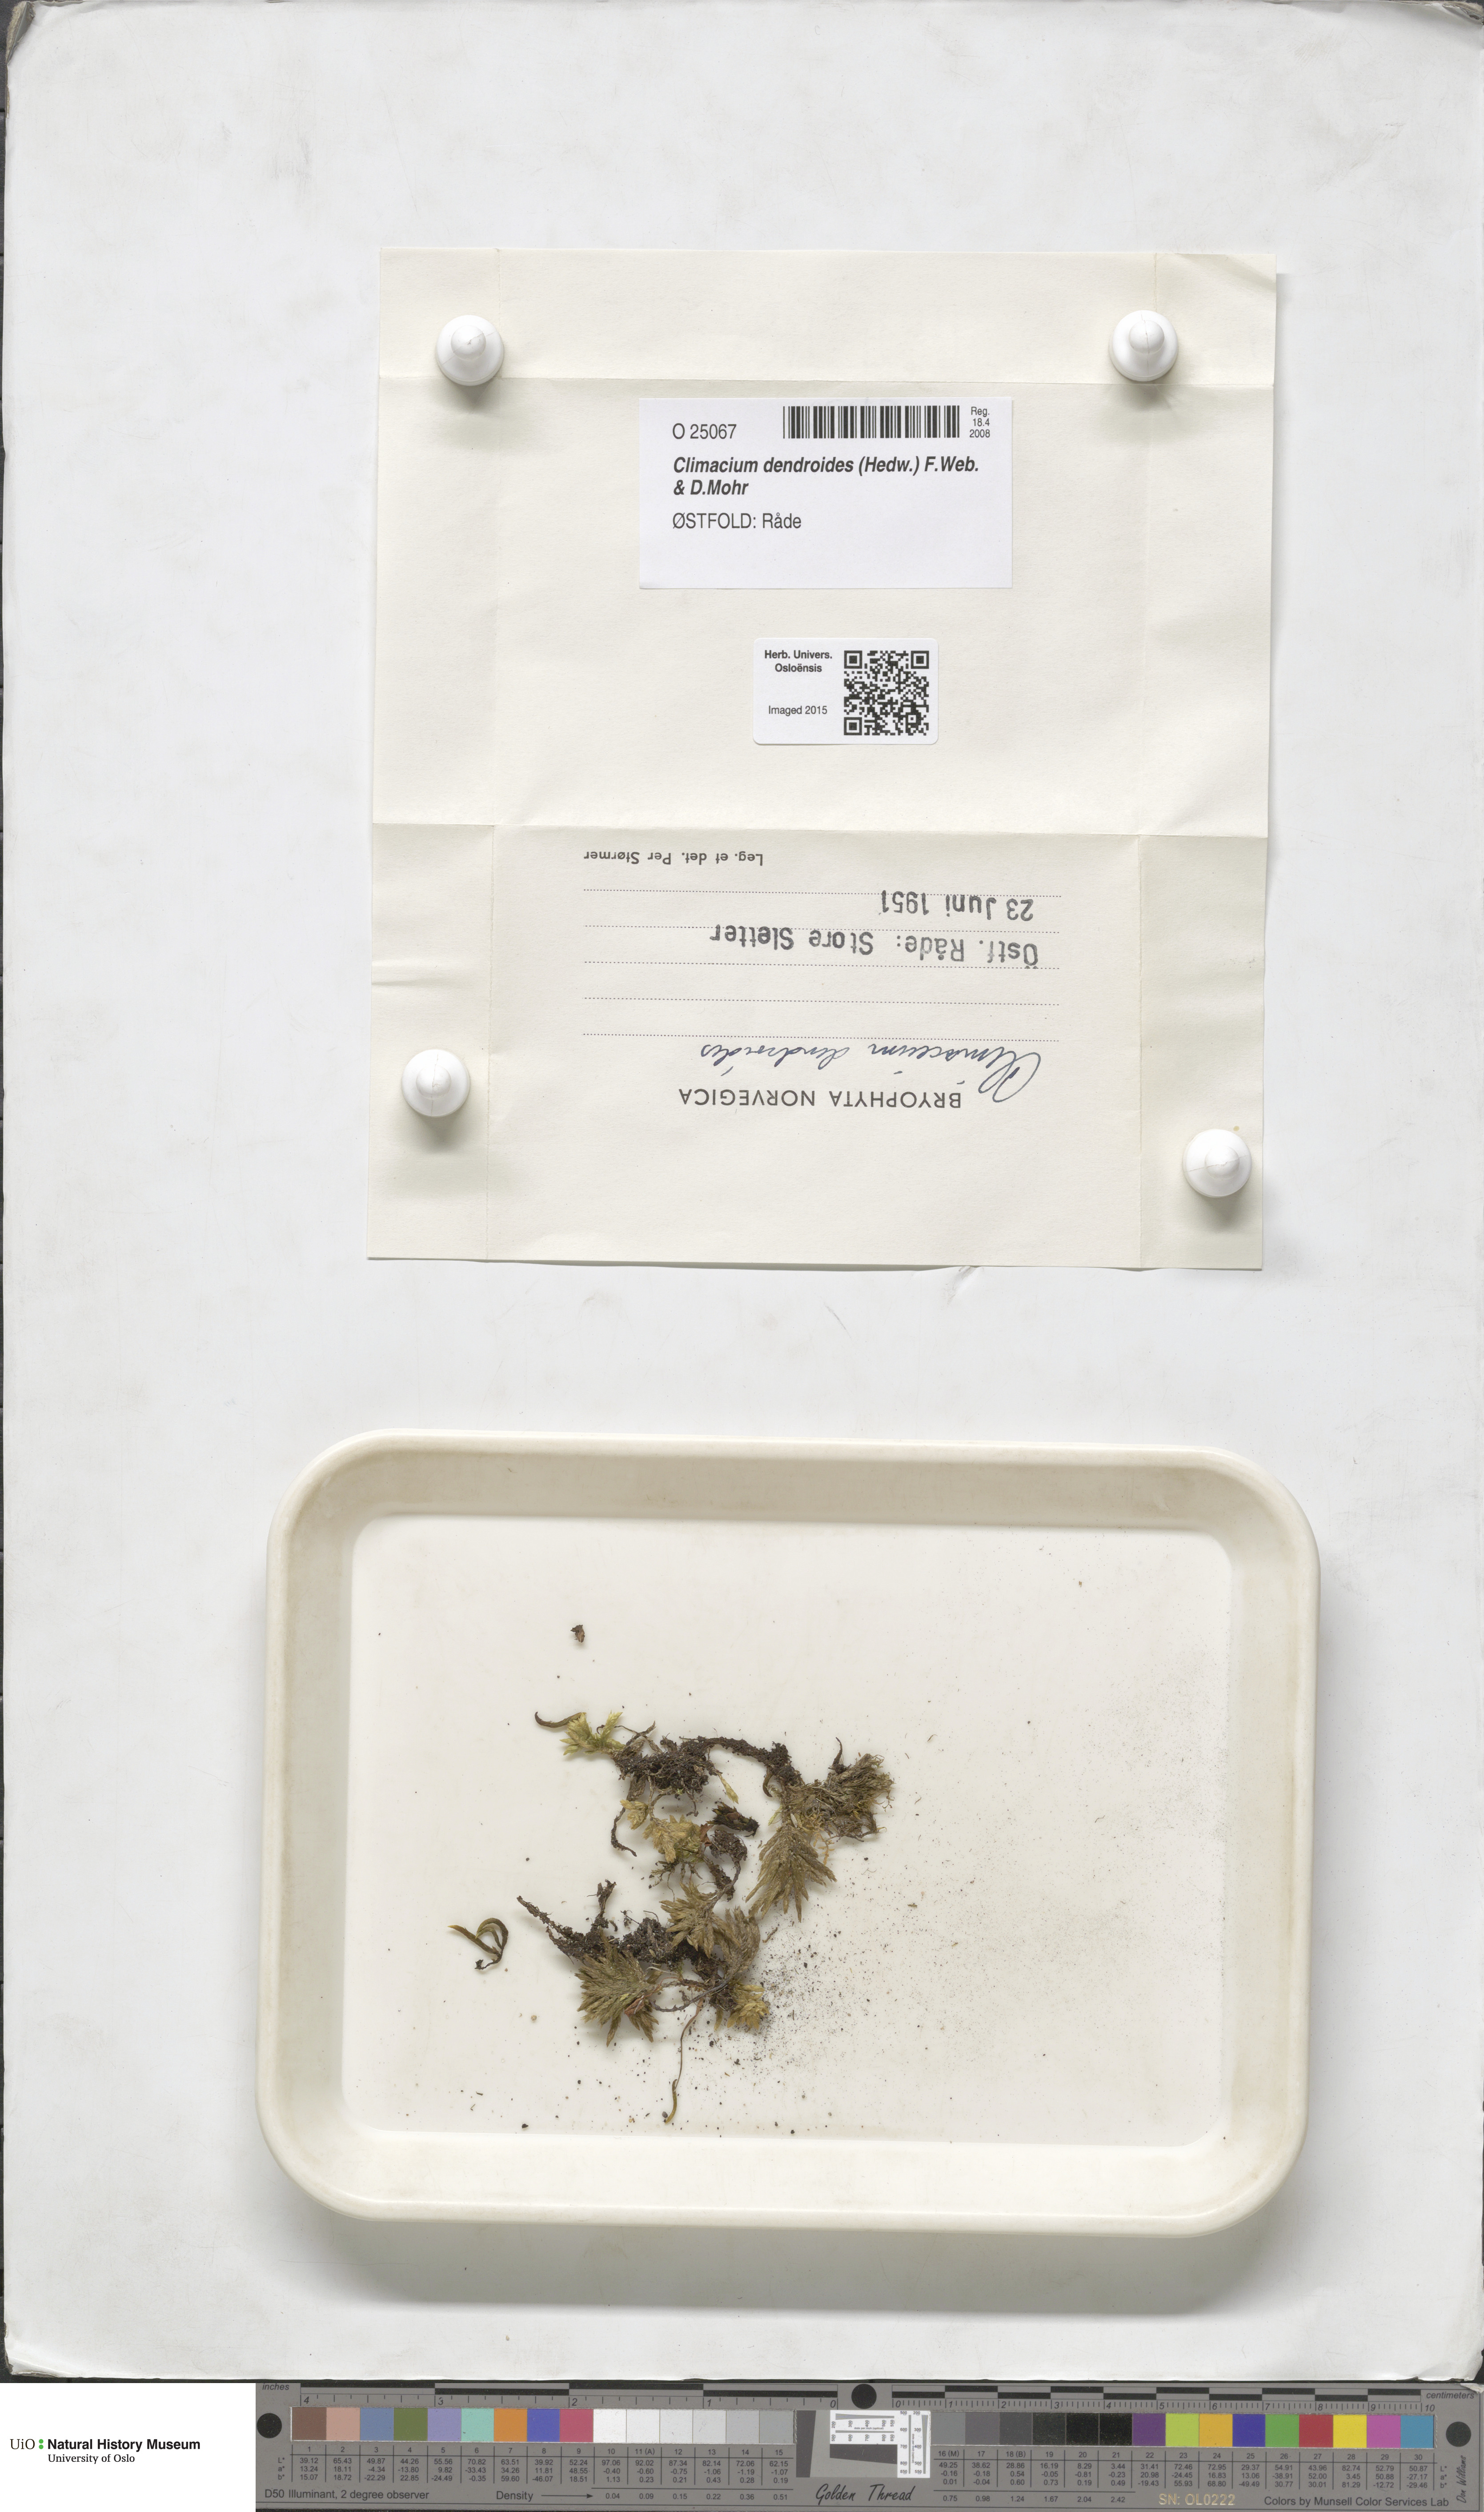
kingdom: Plantae
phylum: Bryophyta
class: Bryopsida
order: Hypnales
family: Climaciaceae
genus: Climacium
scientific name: Climacium dendroides
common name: Northern tree moss
